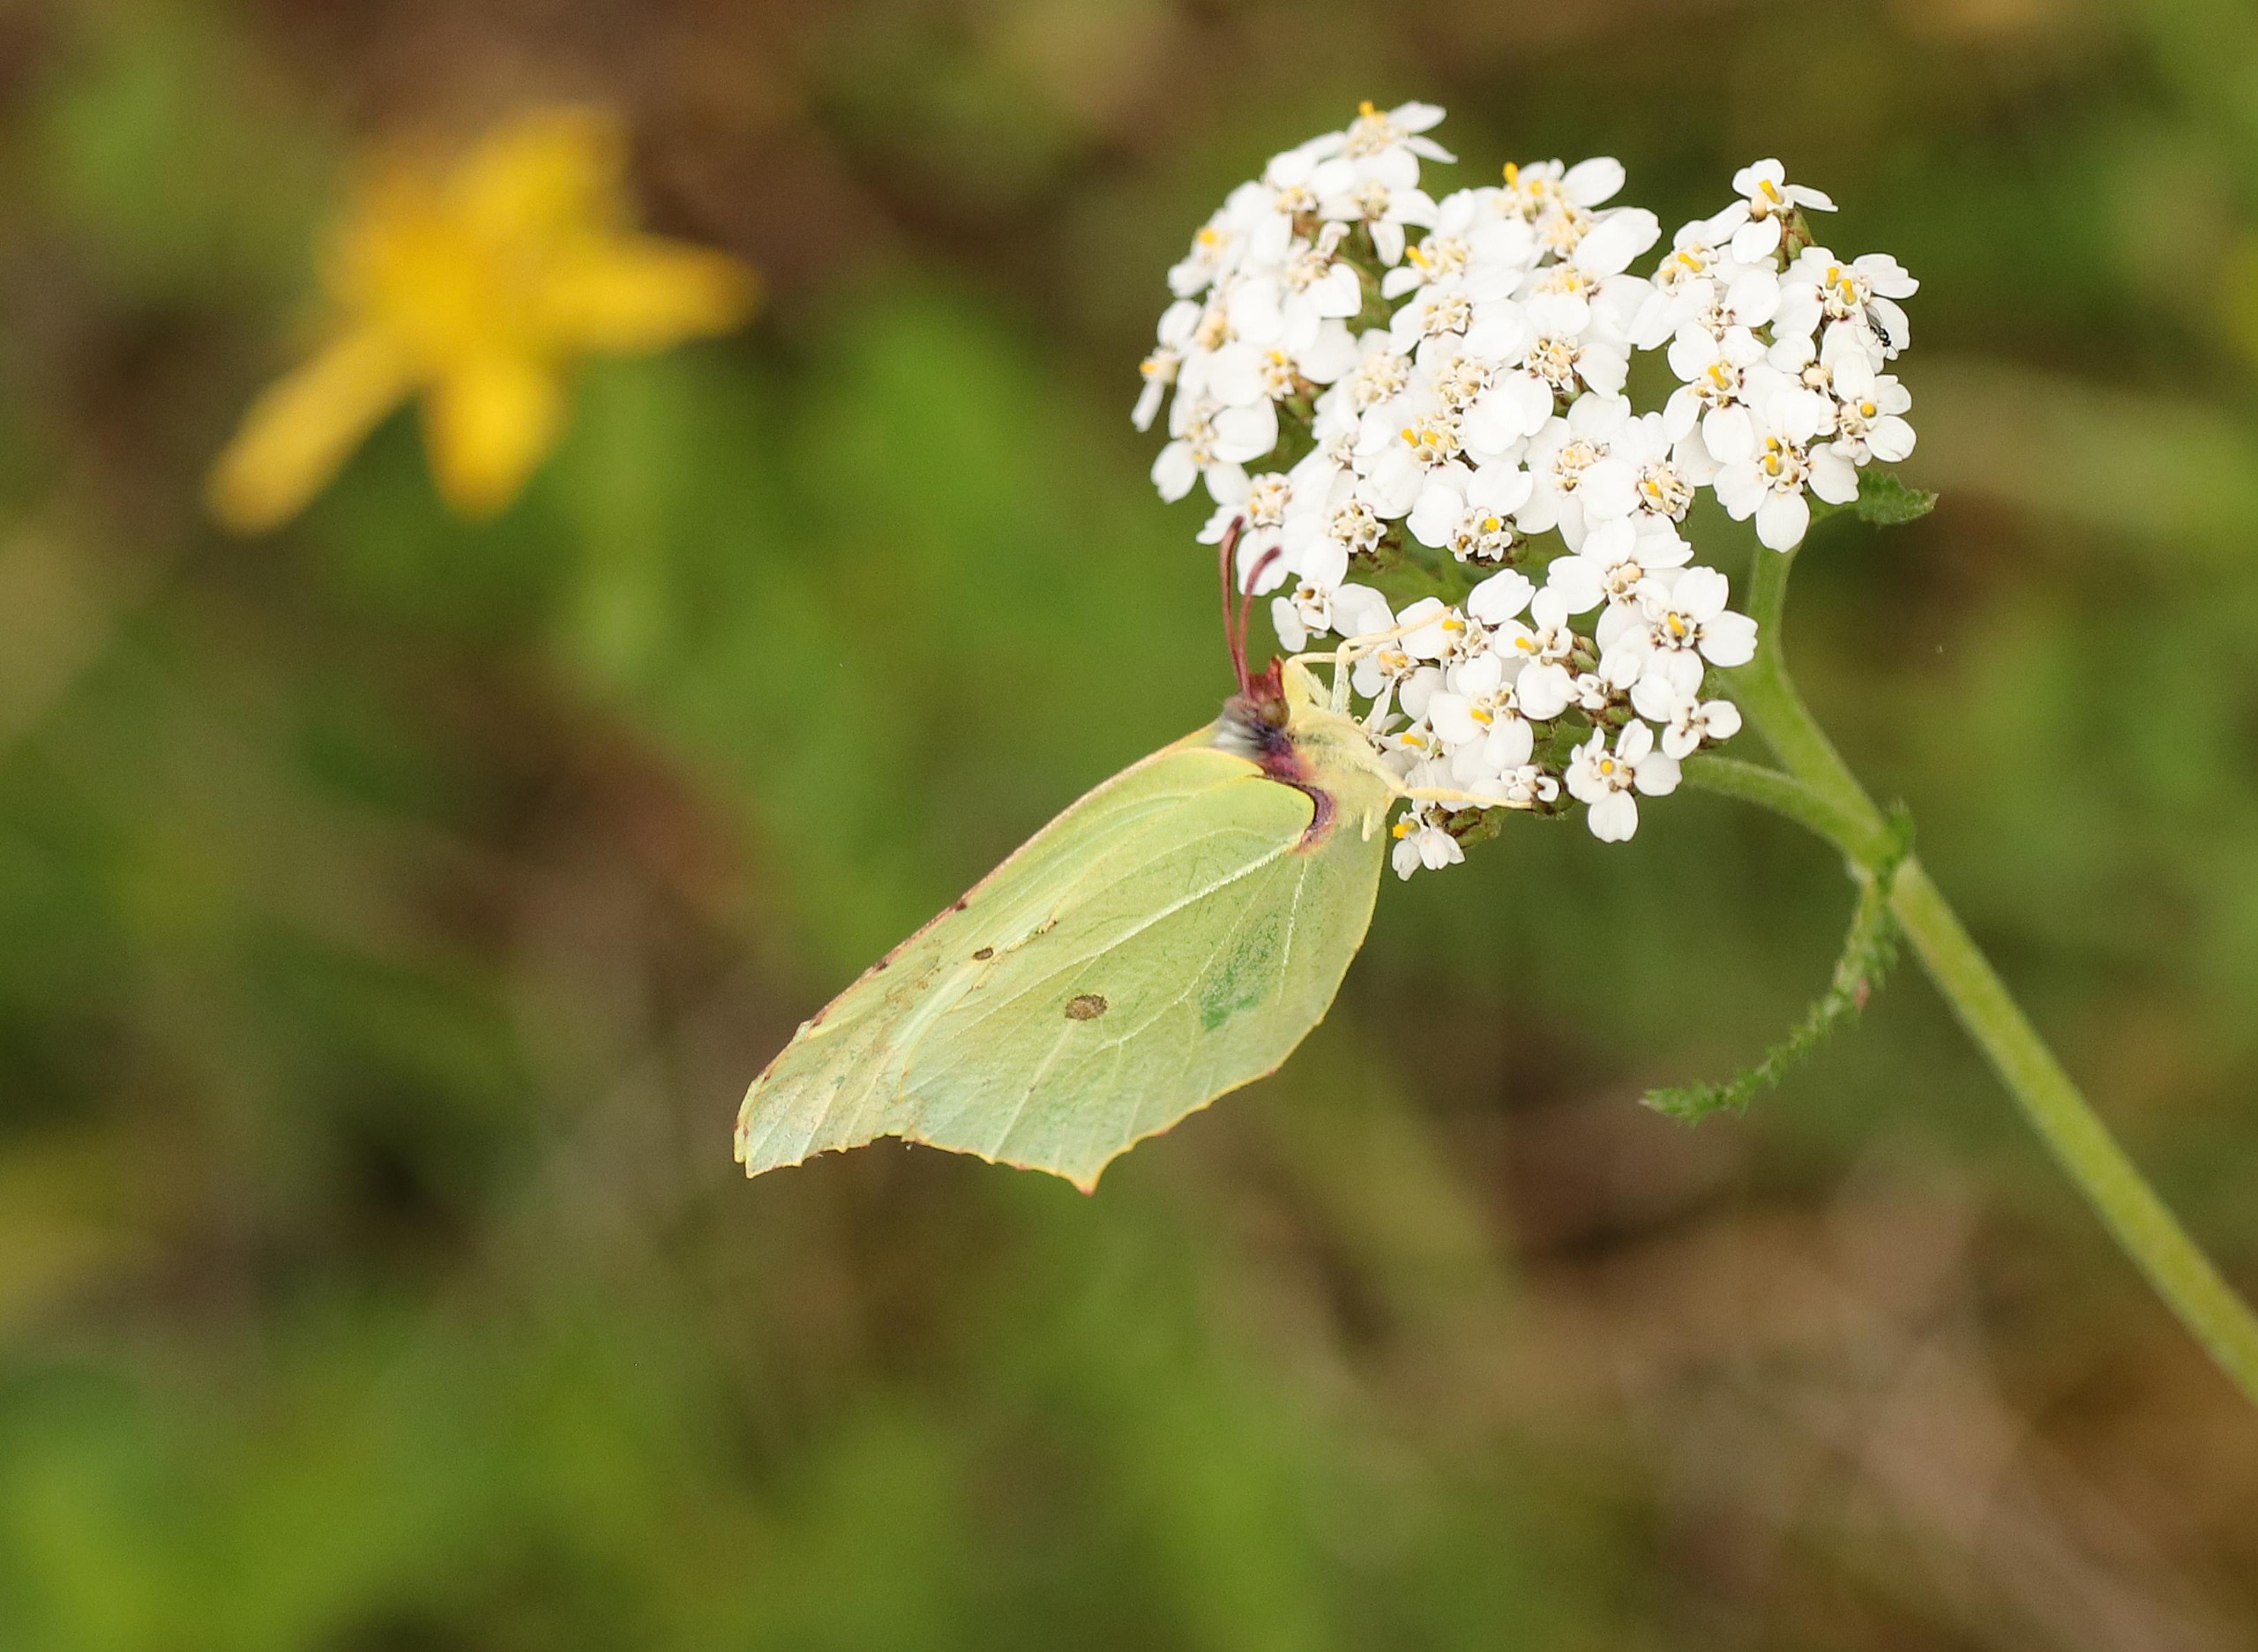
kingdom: Animalia
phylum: Arthropoda
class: Insecta
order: Lepidoptera
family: Pieridae
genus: Gonepteryx
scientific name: Gonepteryx rhamni
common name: Citronsommerfugl
